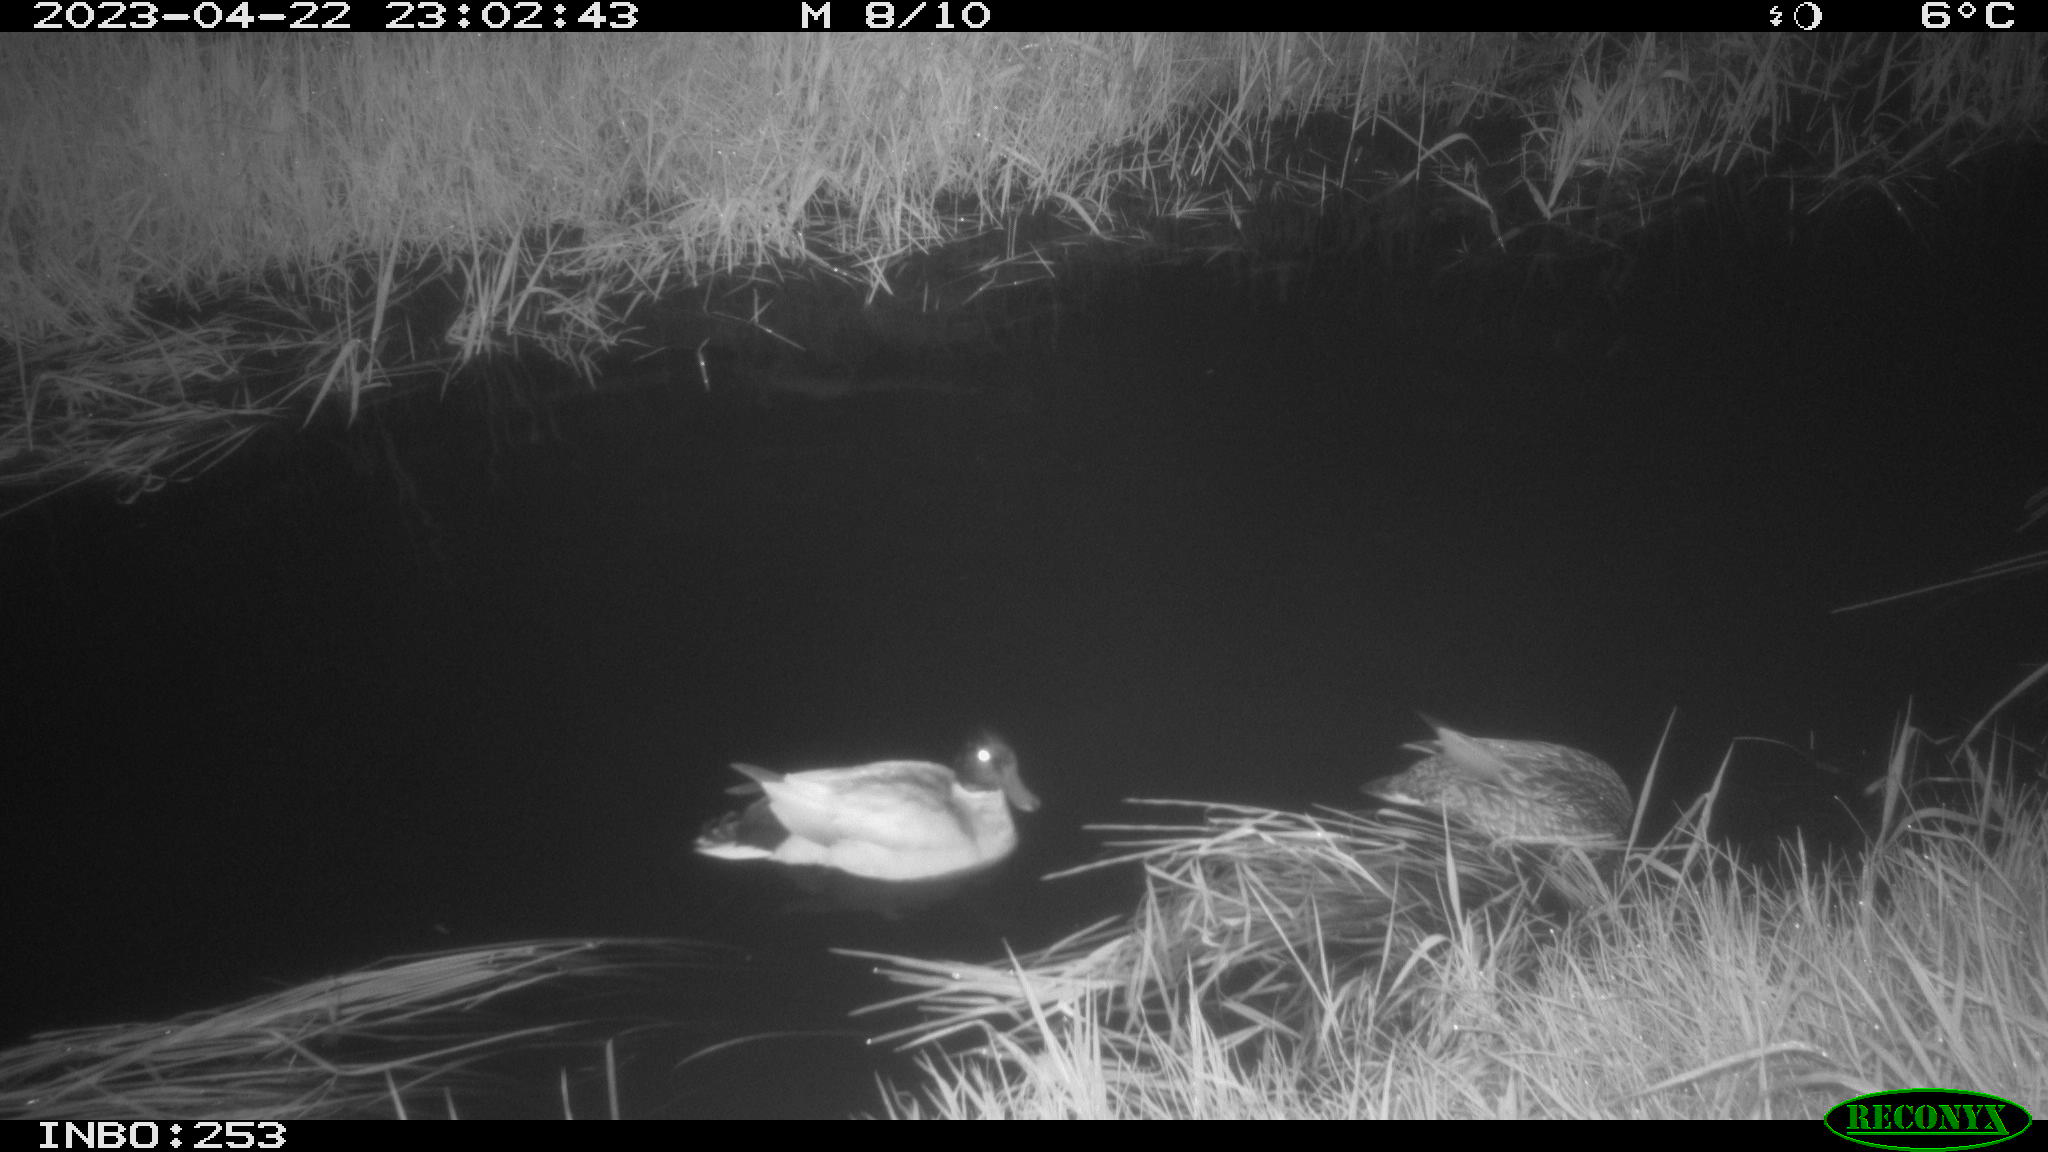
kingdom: Animalia
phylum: Chordata
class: Aves
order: Anseriformes
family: Anatidae
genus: Anas
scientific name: Anas
